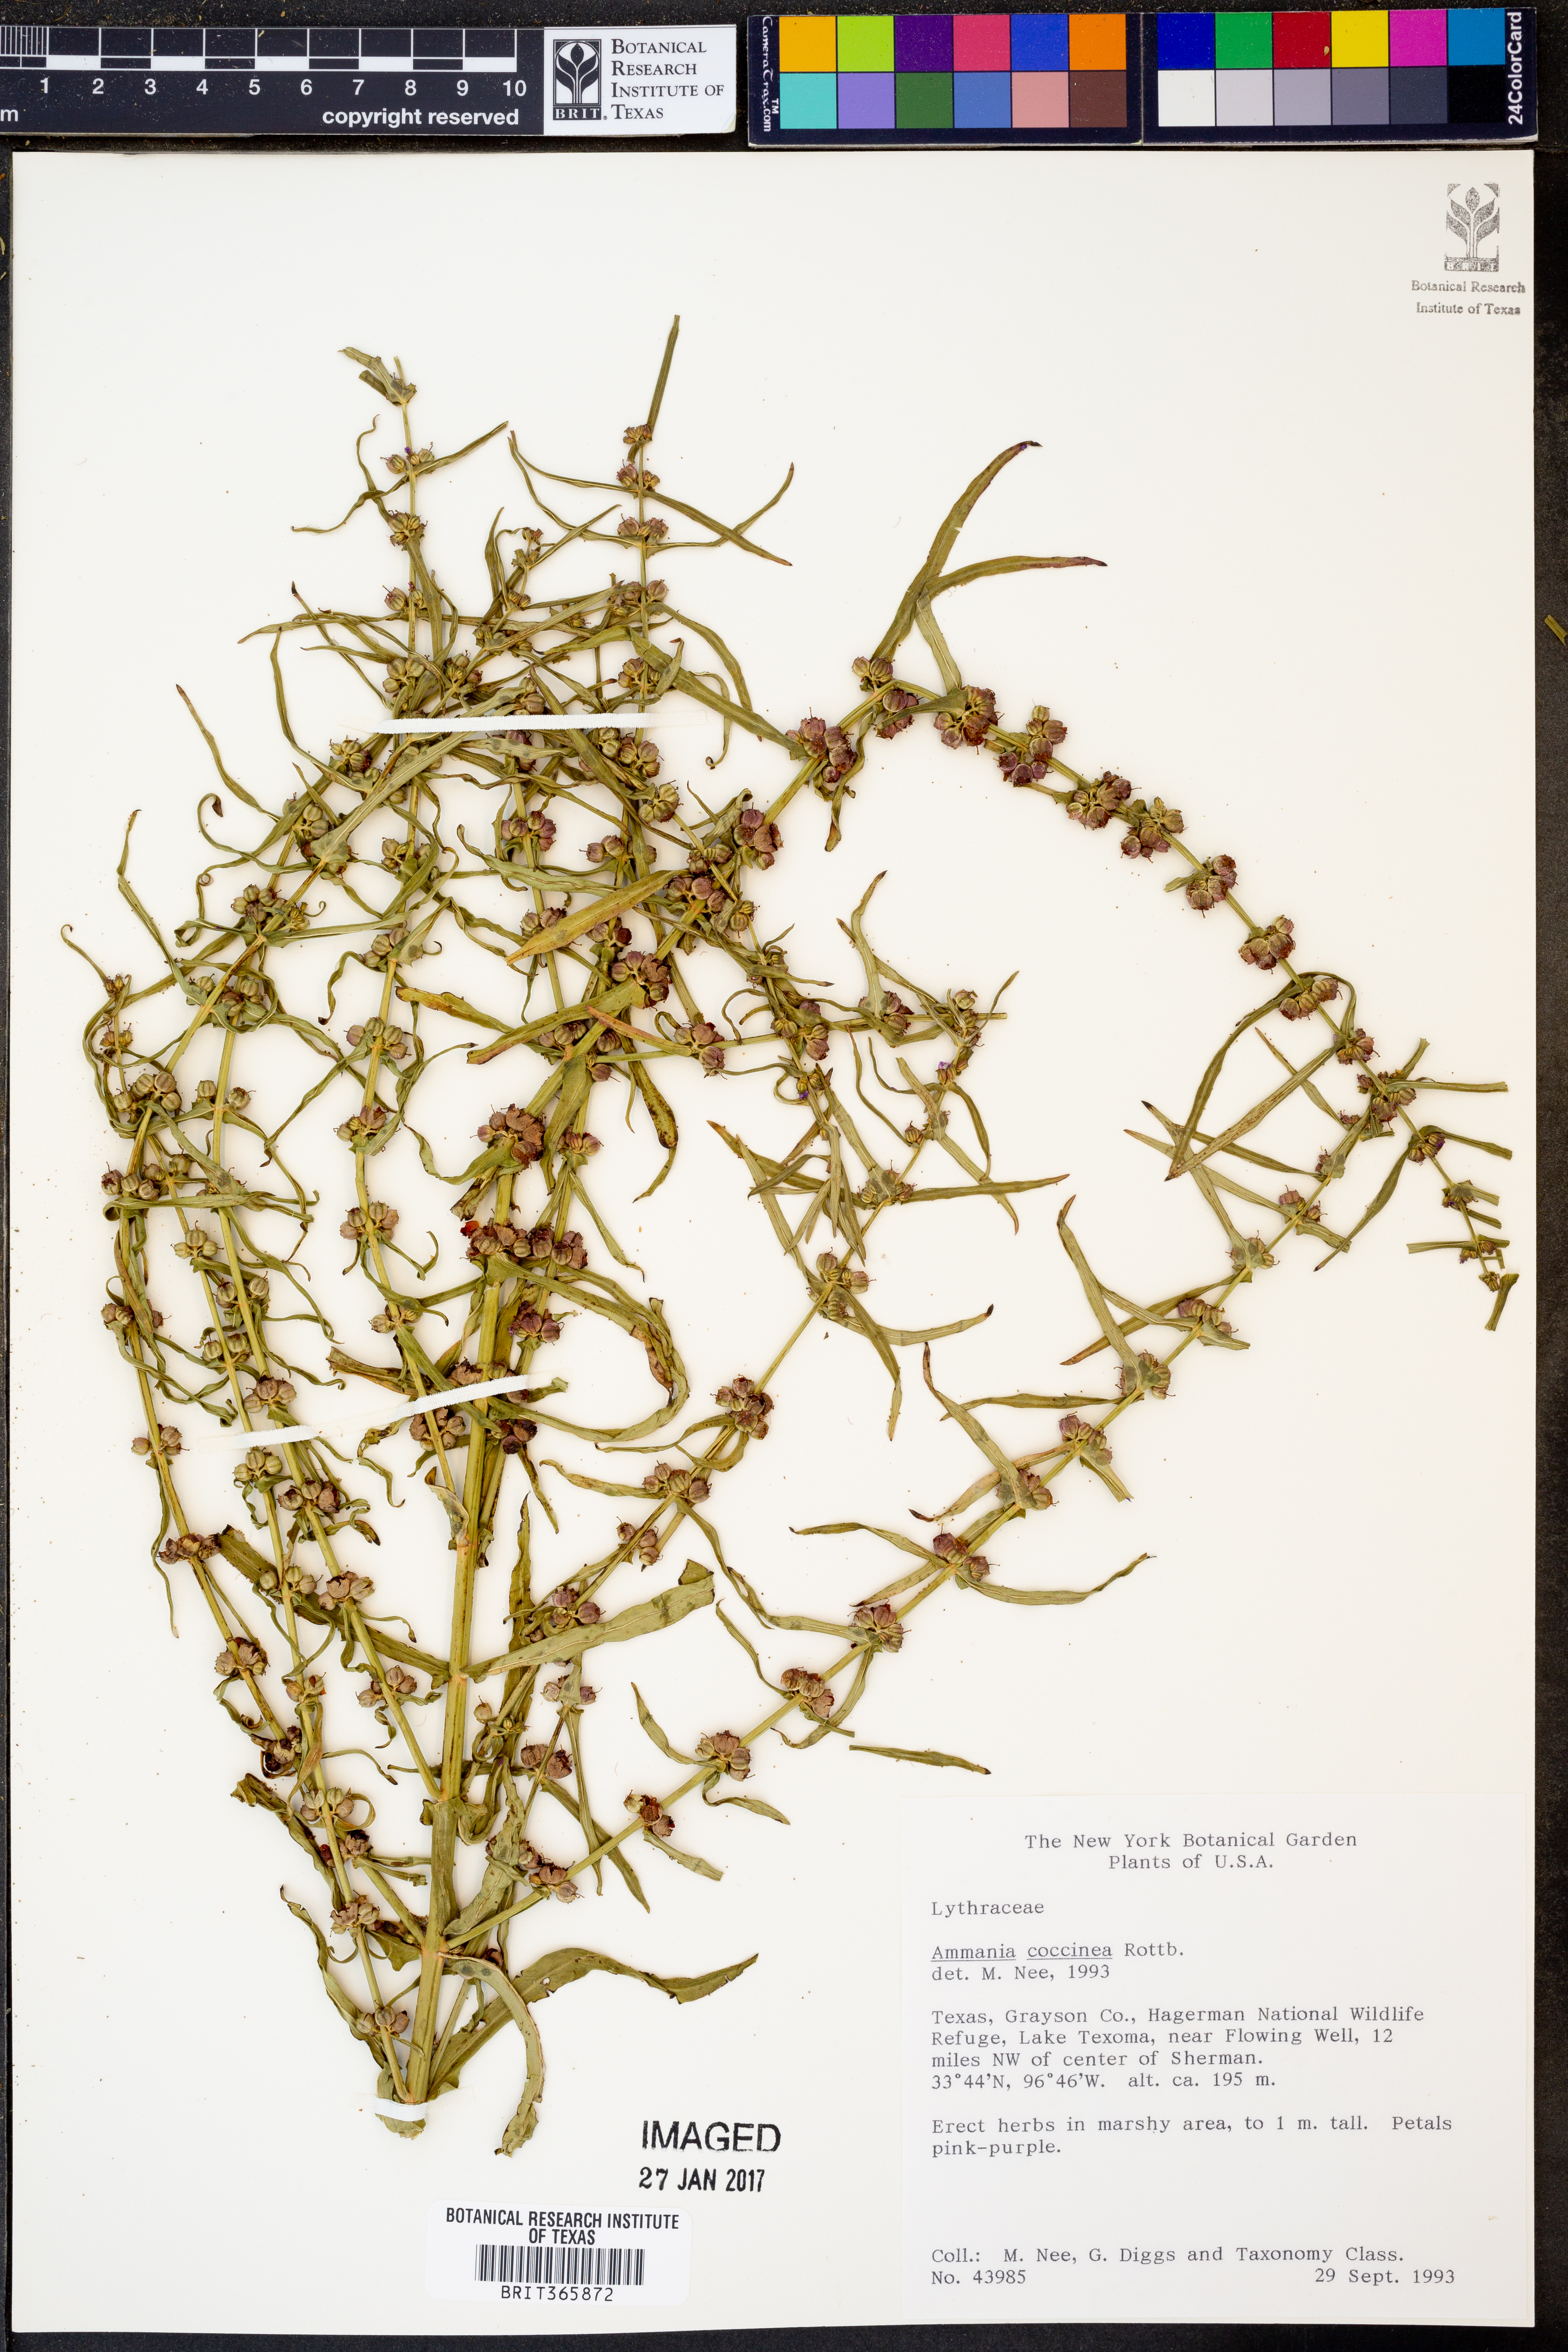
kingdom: Plantae
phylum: Tracheophyta
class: Magnoliopsida
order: Myrtales
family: Lythraceae
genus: Ammannia
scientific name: Ammannia coccinea
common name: Valley redstem
